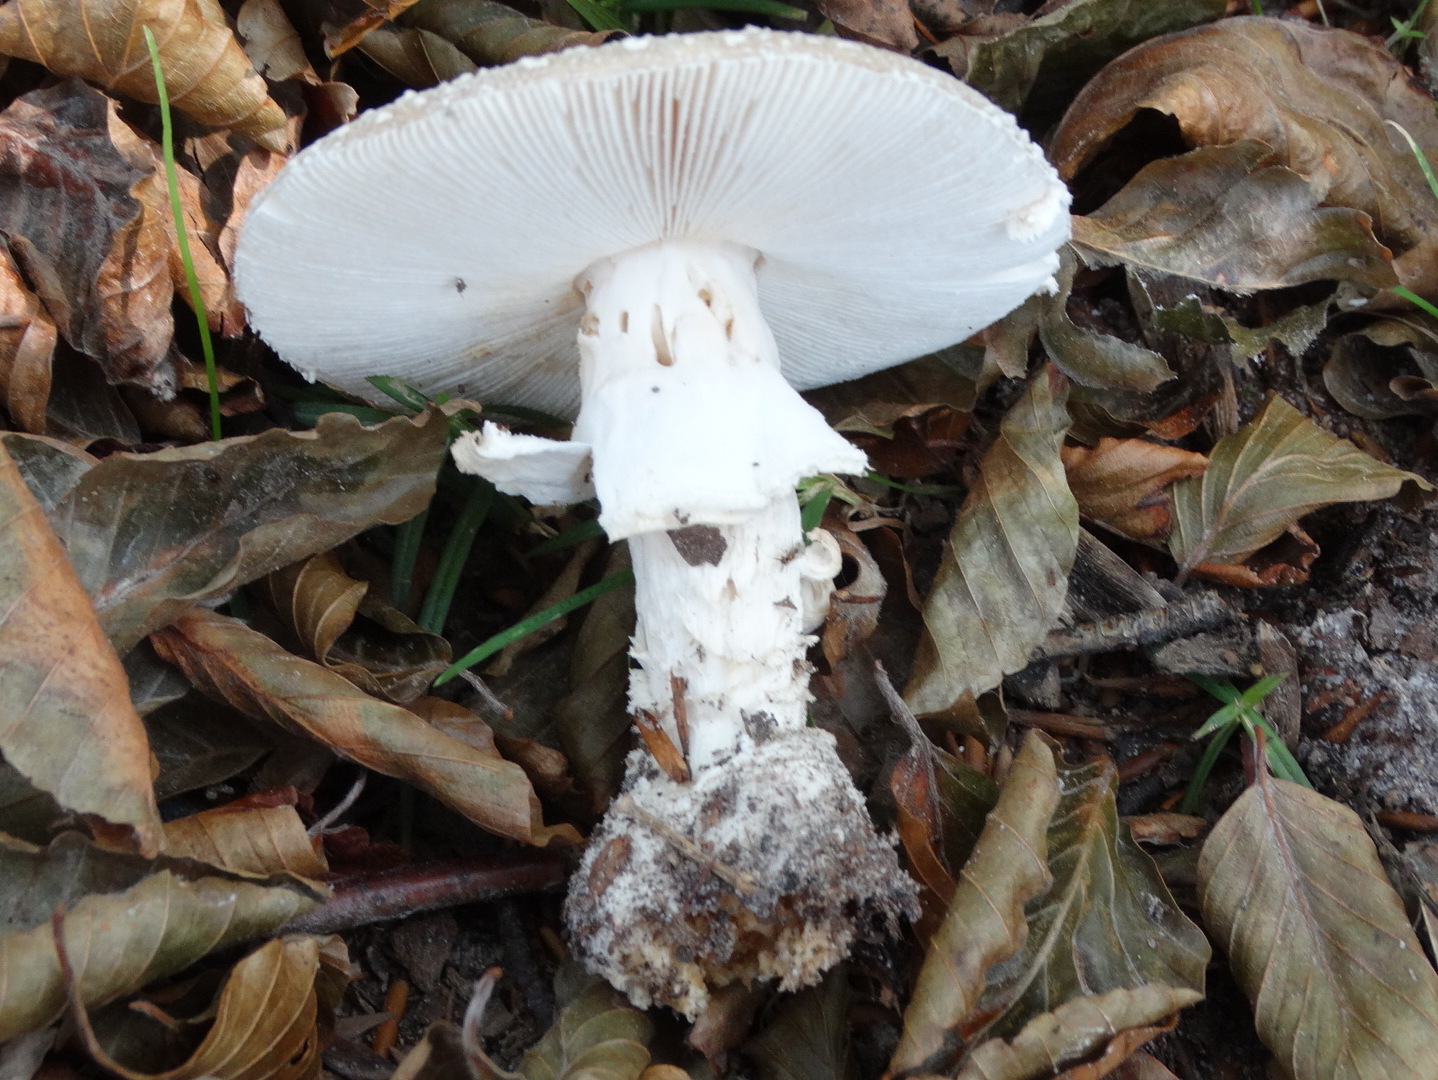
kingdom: Fungi
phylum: Basidiomycota
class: Agaricomycetes
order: Agaricales
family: Amanitaceae
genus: Amanita
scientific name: Amanita
